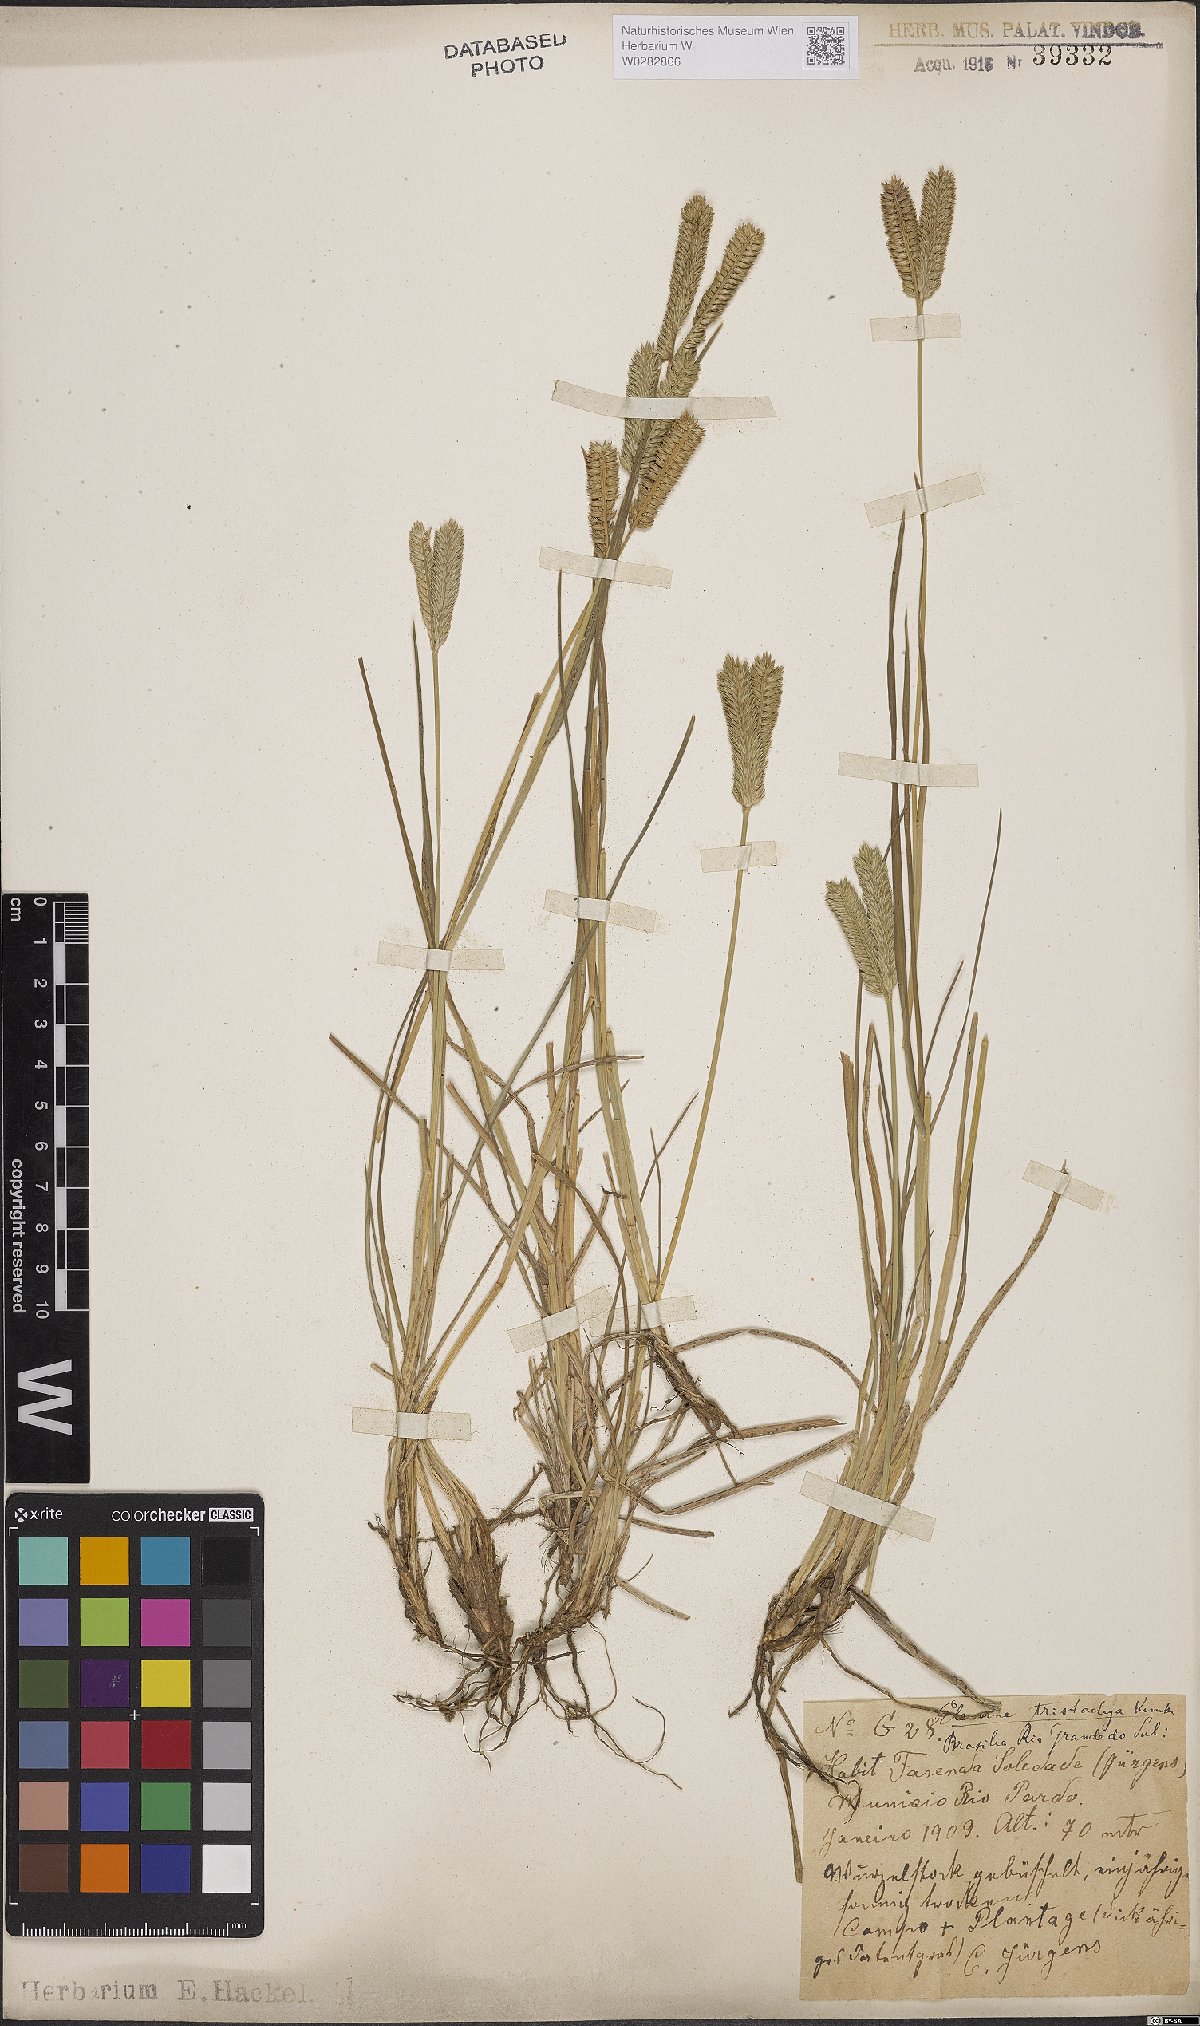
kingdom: Plantae
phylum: Tracheophyta
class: Liliopsida
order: Poales
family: Poaceae
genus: Eleusine
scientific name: Eleusine tristachya
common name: American yard-grass
